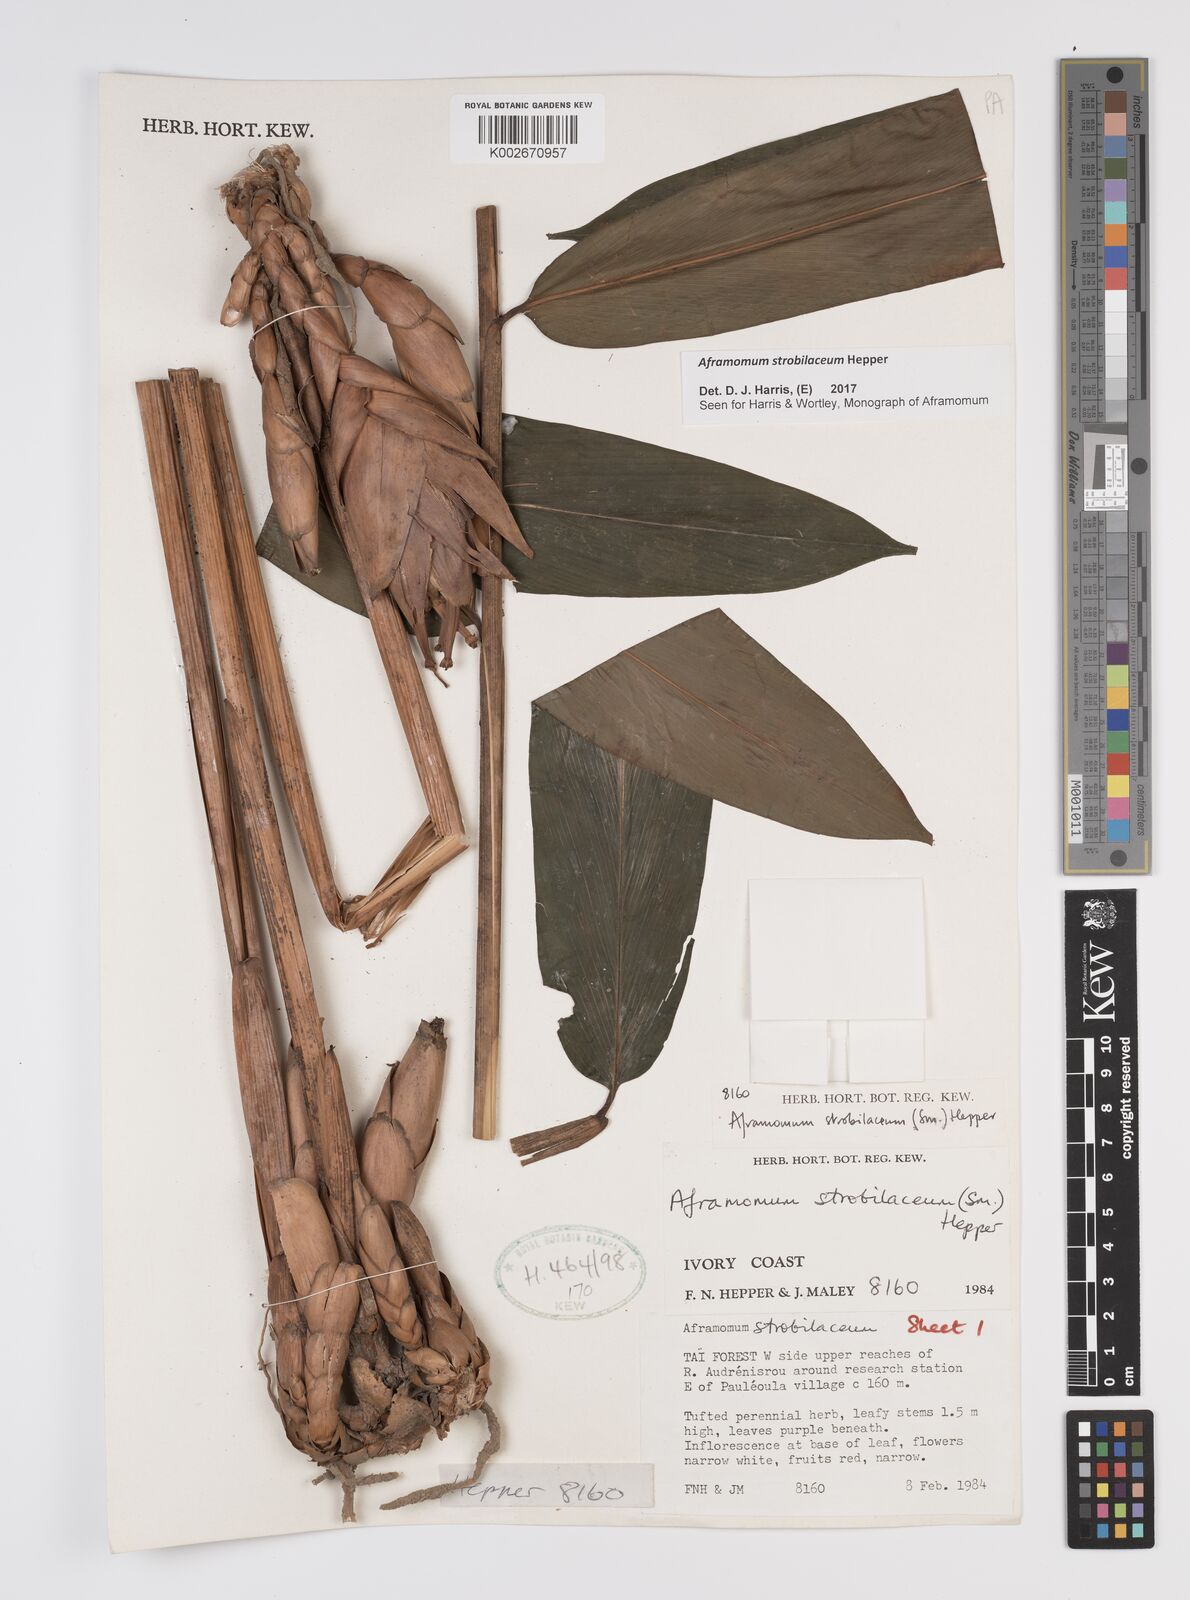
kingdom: Plantae
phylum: Tracheophyta
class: Liliopsida
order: Zingiberales
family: Zingiberaceae
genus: Aframomum
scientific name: Aframomum strobilaceum
